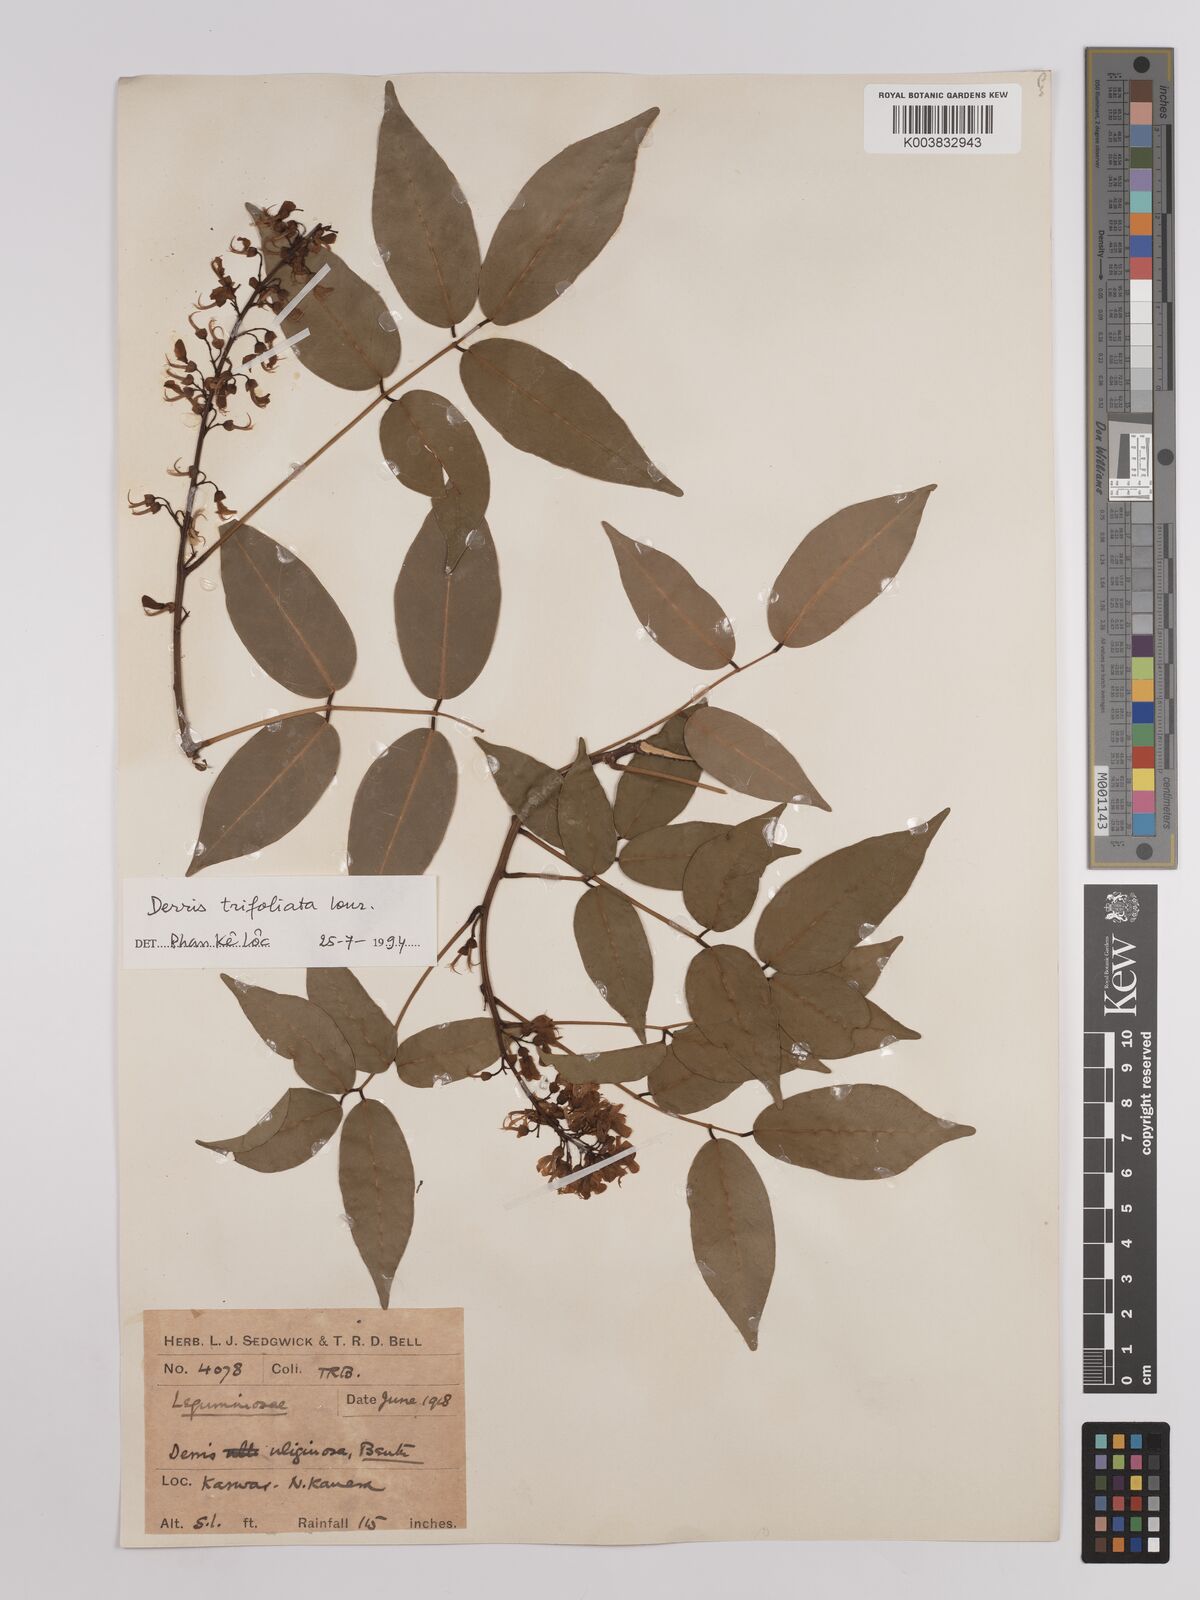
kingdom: Plantae
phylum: Tracheophyta
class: Magnoliopsida
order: Fabales
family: Fabaceae
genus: Derris
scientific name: Derris trifoliata
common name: Three-leaf derris
